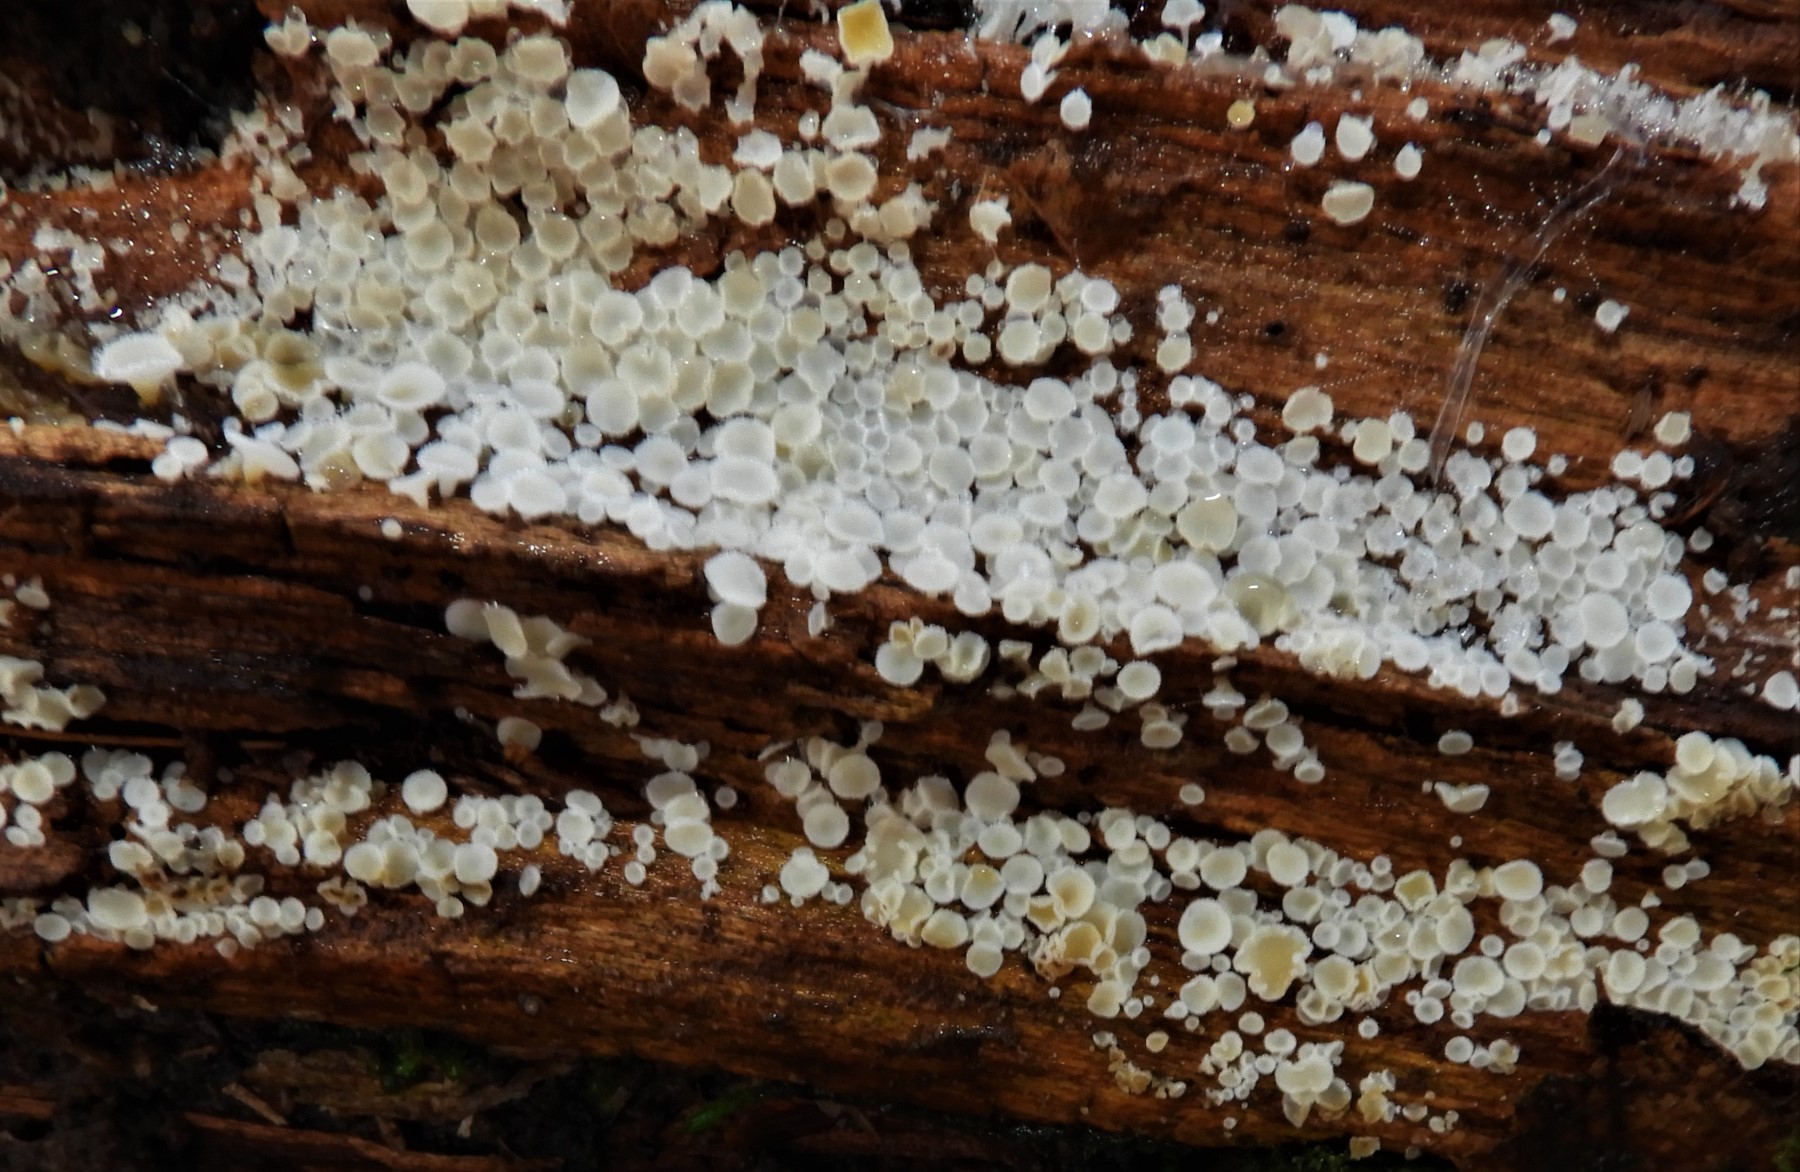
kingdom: Fungi
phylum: Ascomycota
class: Leotiomycetes
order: Helotiales
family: Lachnaceae
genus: Lachnum
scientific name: Lachnum
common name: frynseskive
